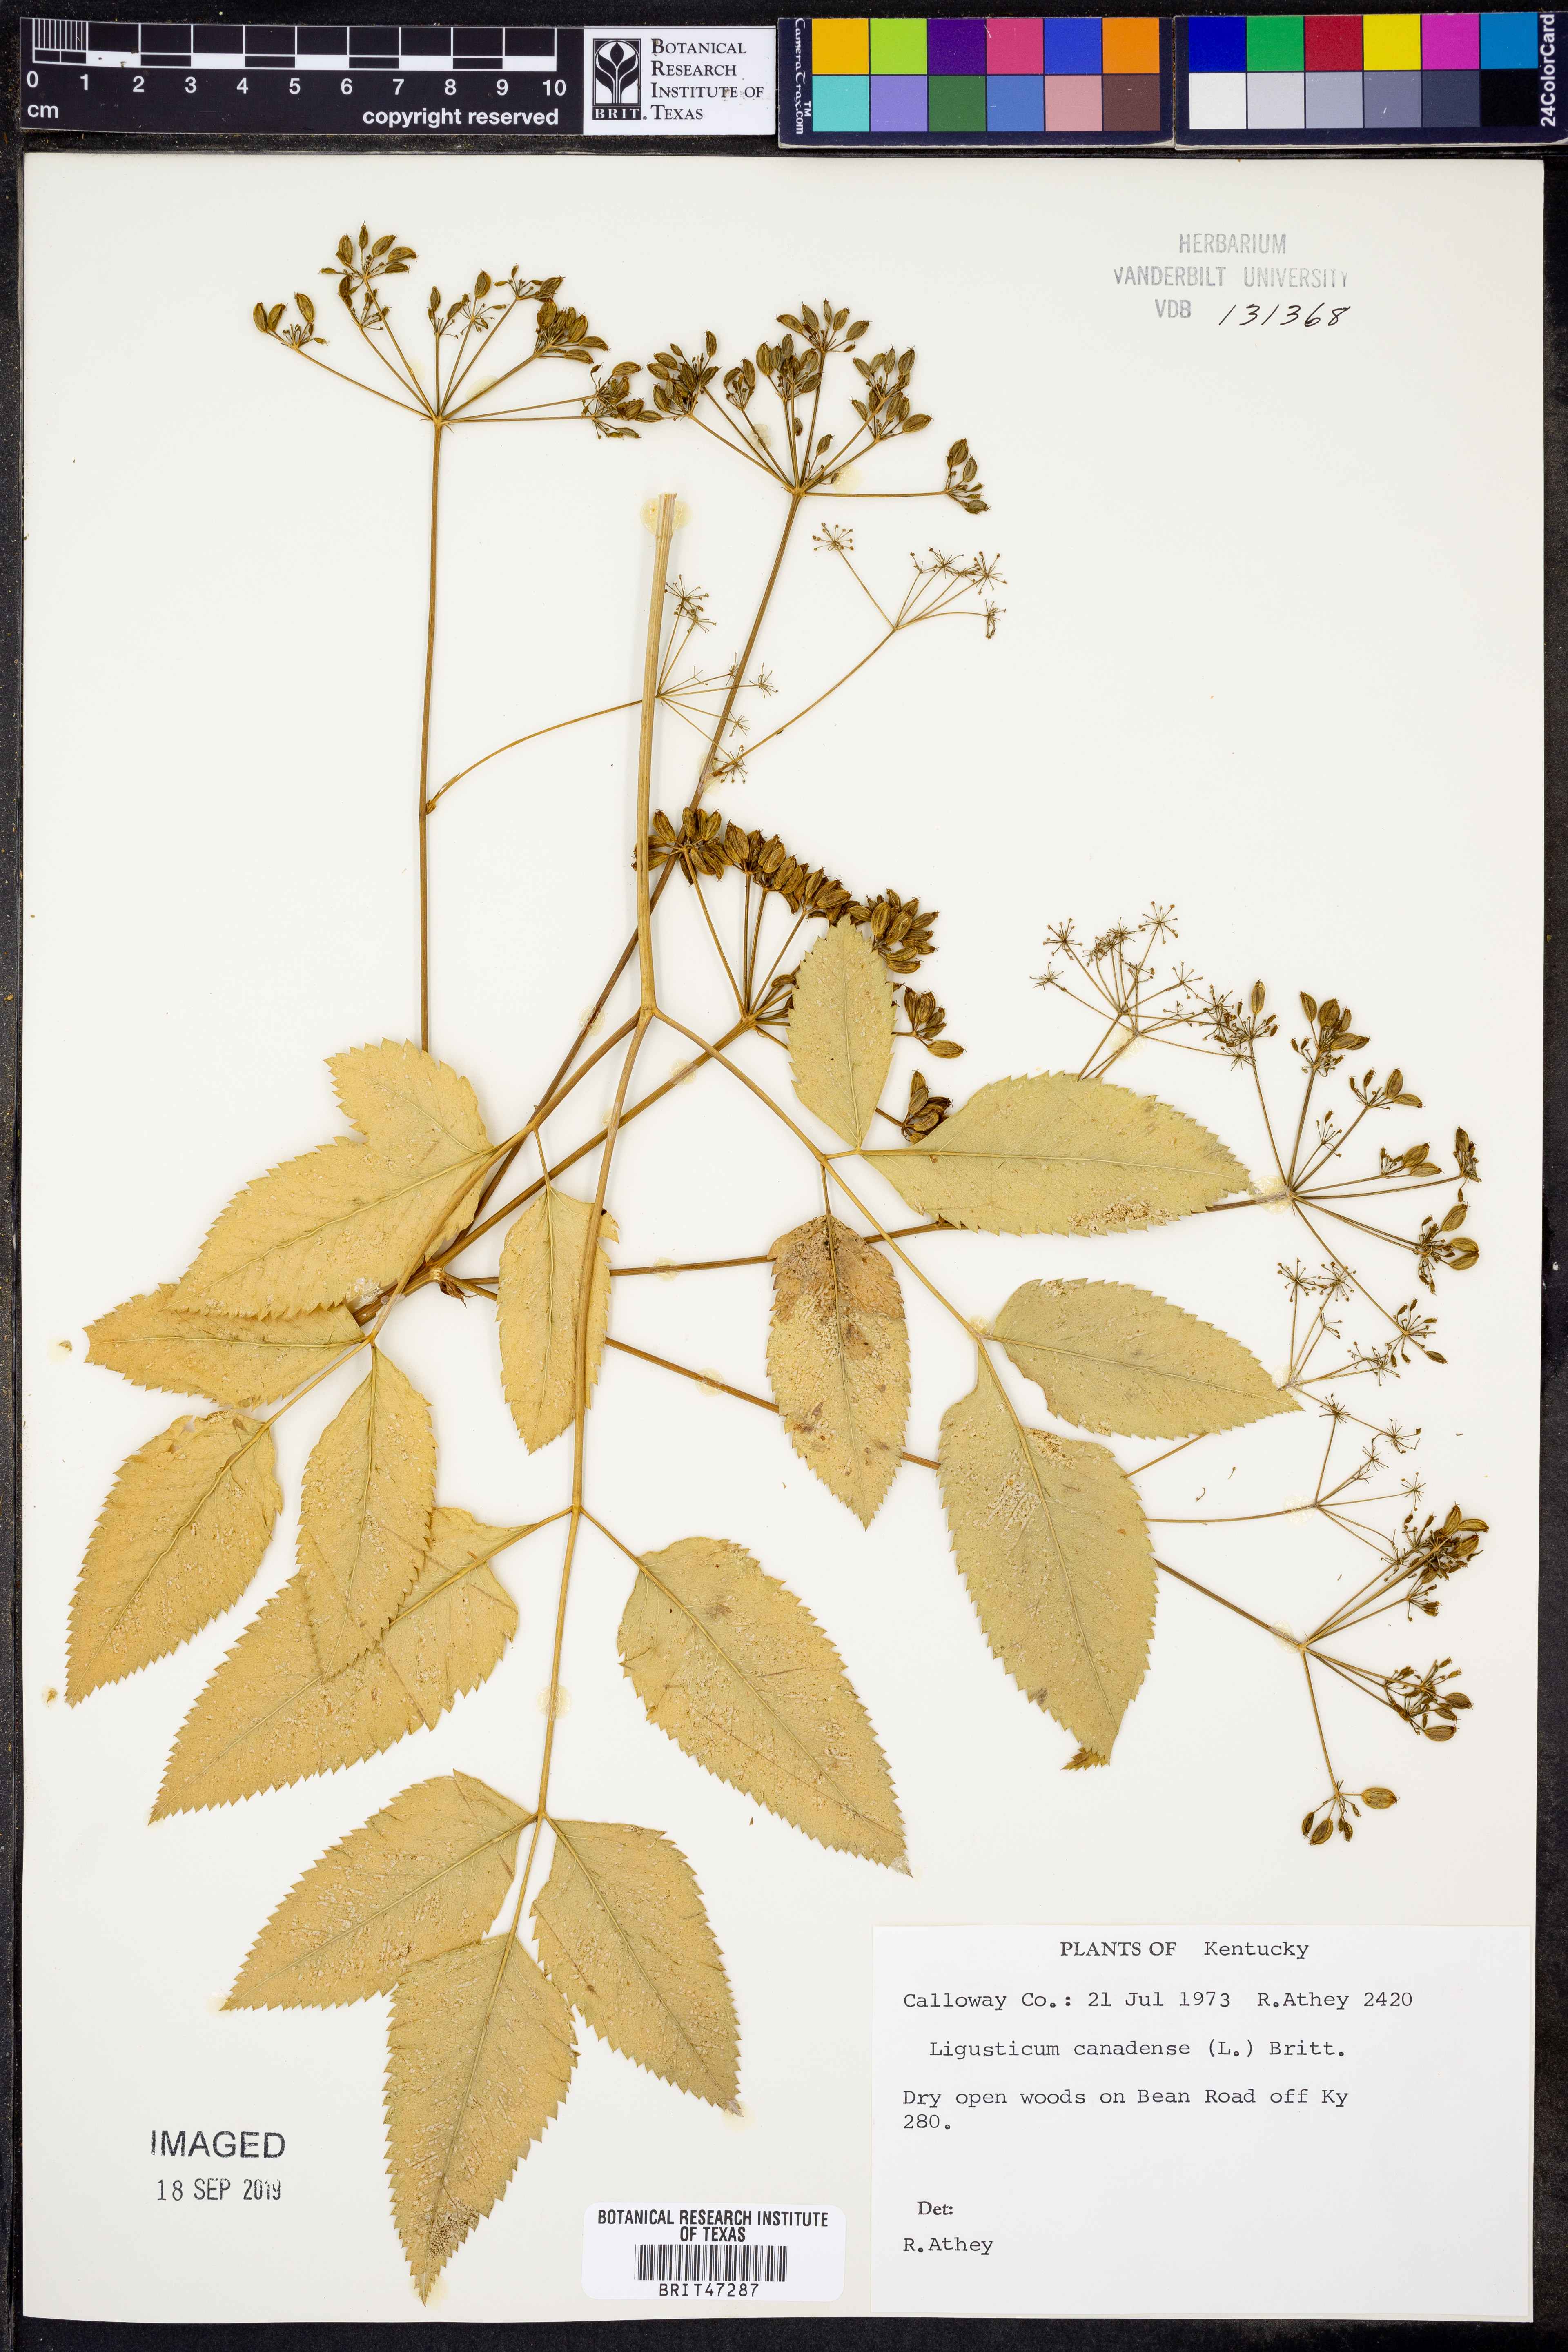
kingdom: Plantae
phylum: Tracheophyta
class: Magnoliopsida
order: Apiales
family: Apiaceae
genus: Ligusticum
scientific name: Ligusticum canadense
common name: American lovage
